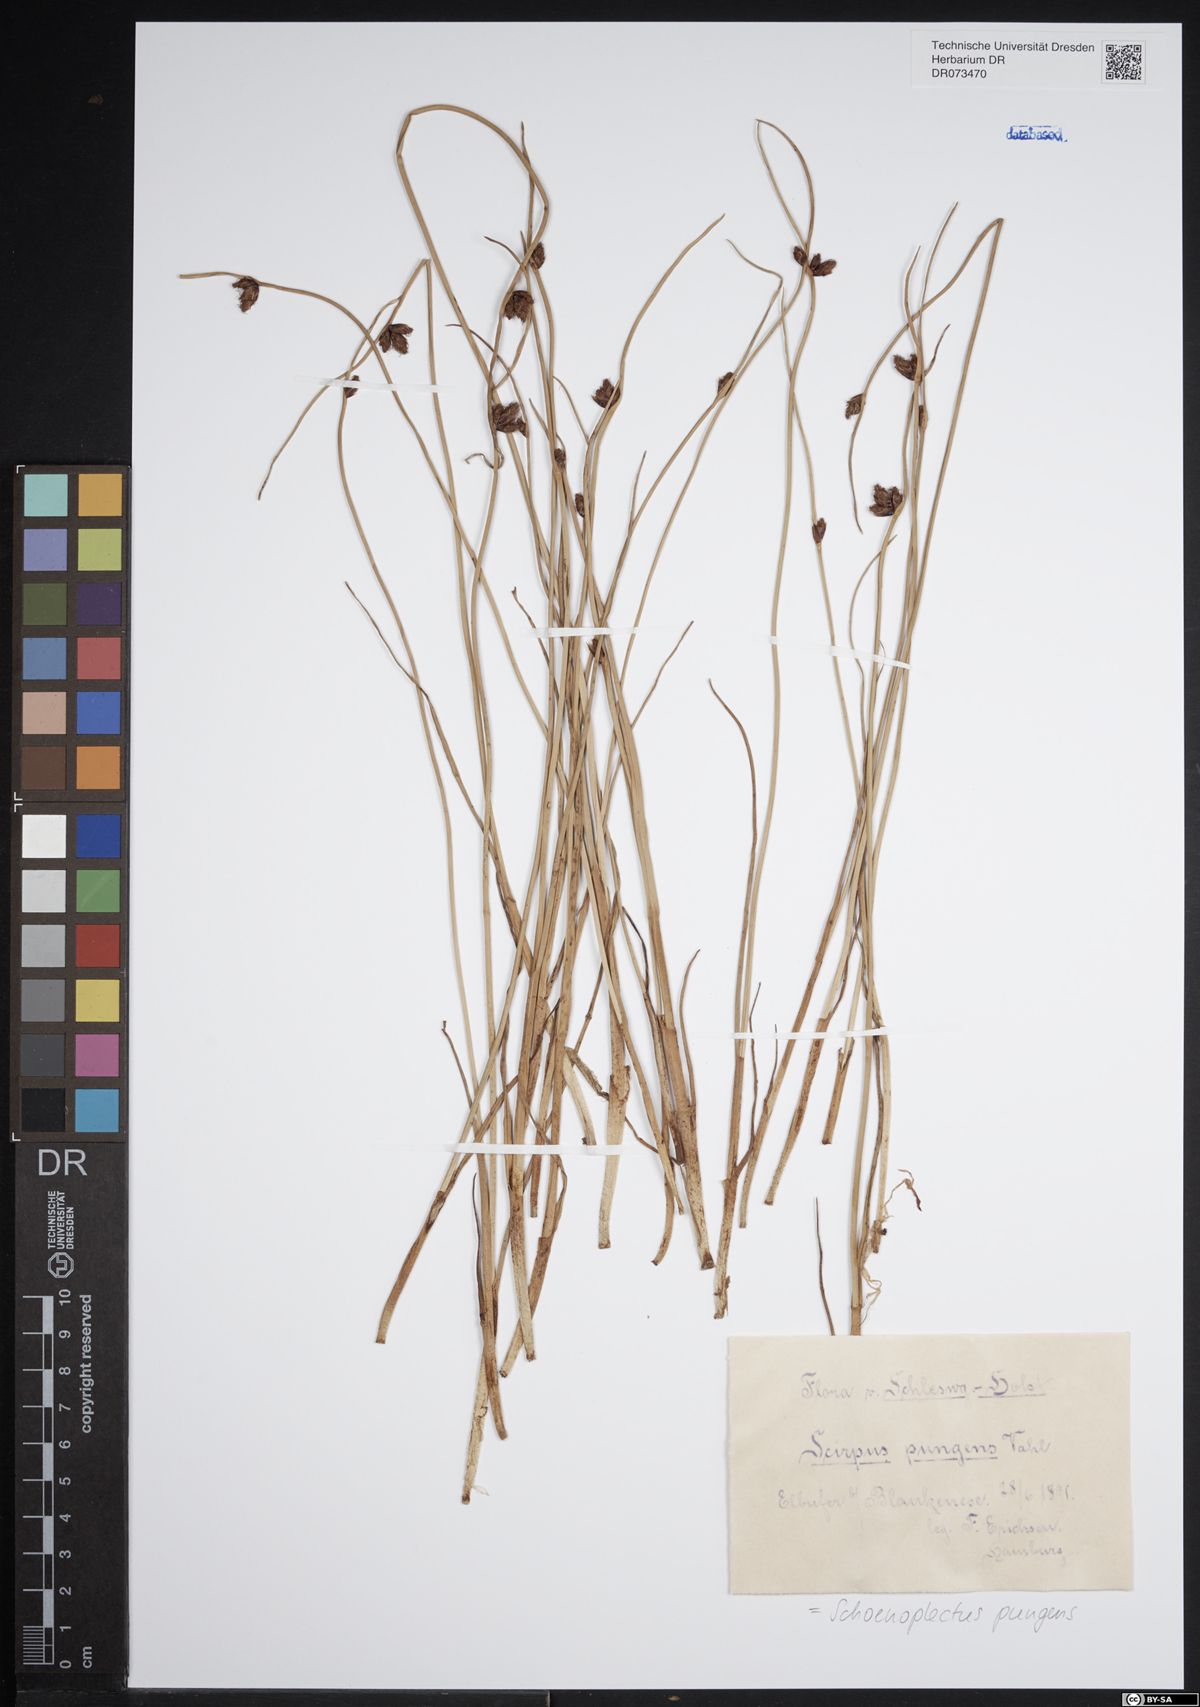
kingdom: Plantae
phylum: Tracheophyta
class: Liliopsida
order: Poales
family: Cyperaceae
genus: Schoenoplectus
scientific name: Schoenoplectus pungens
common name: Sharp club-rush
